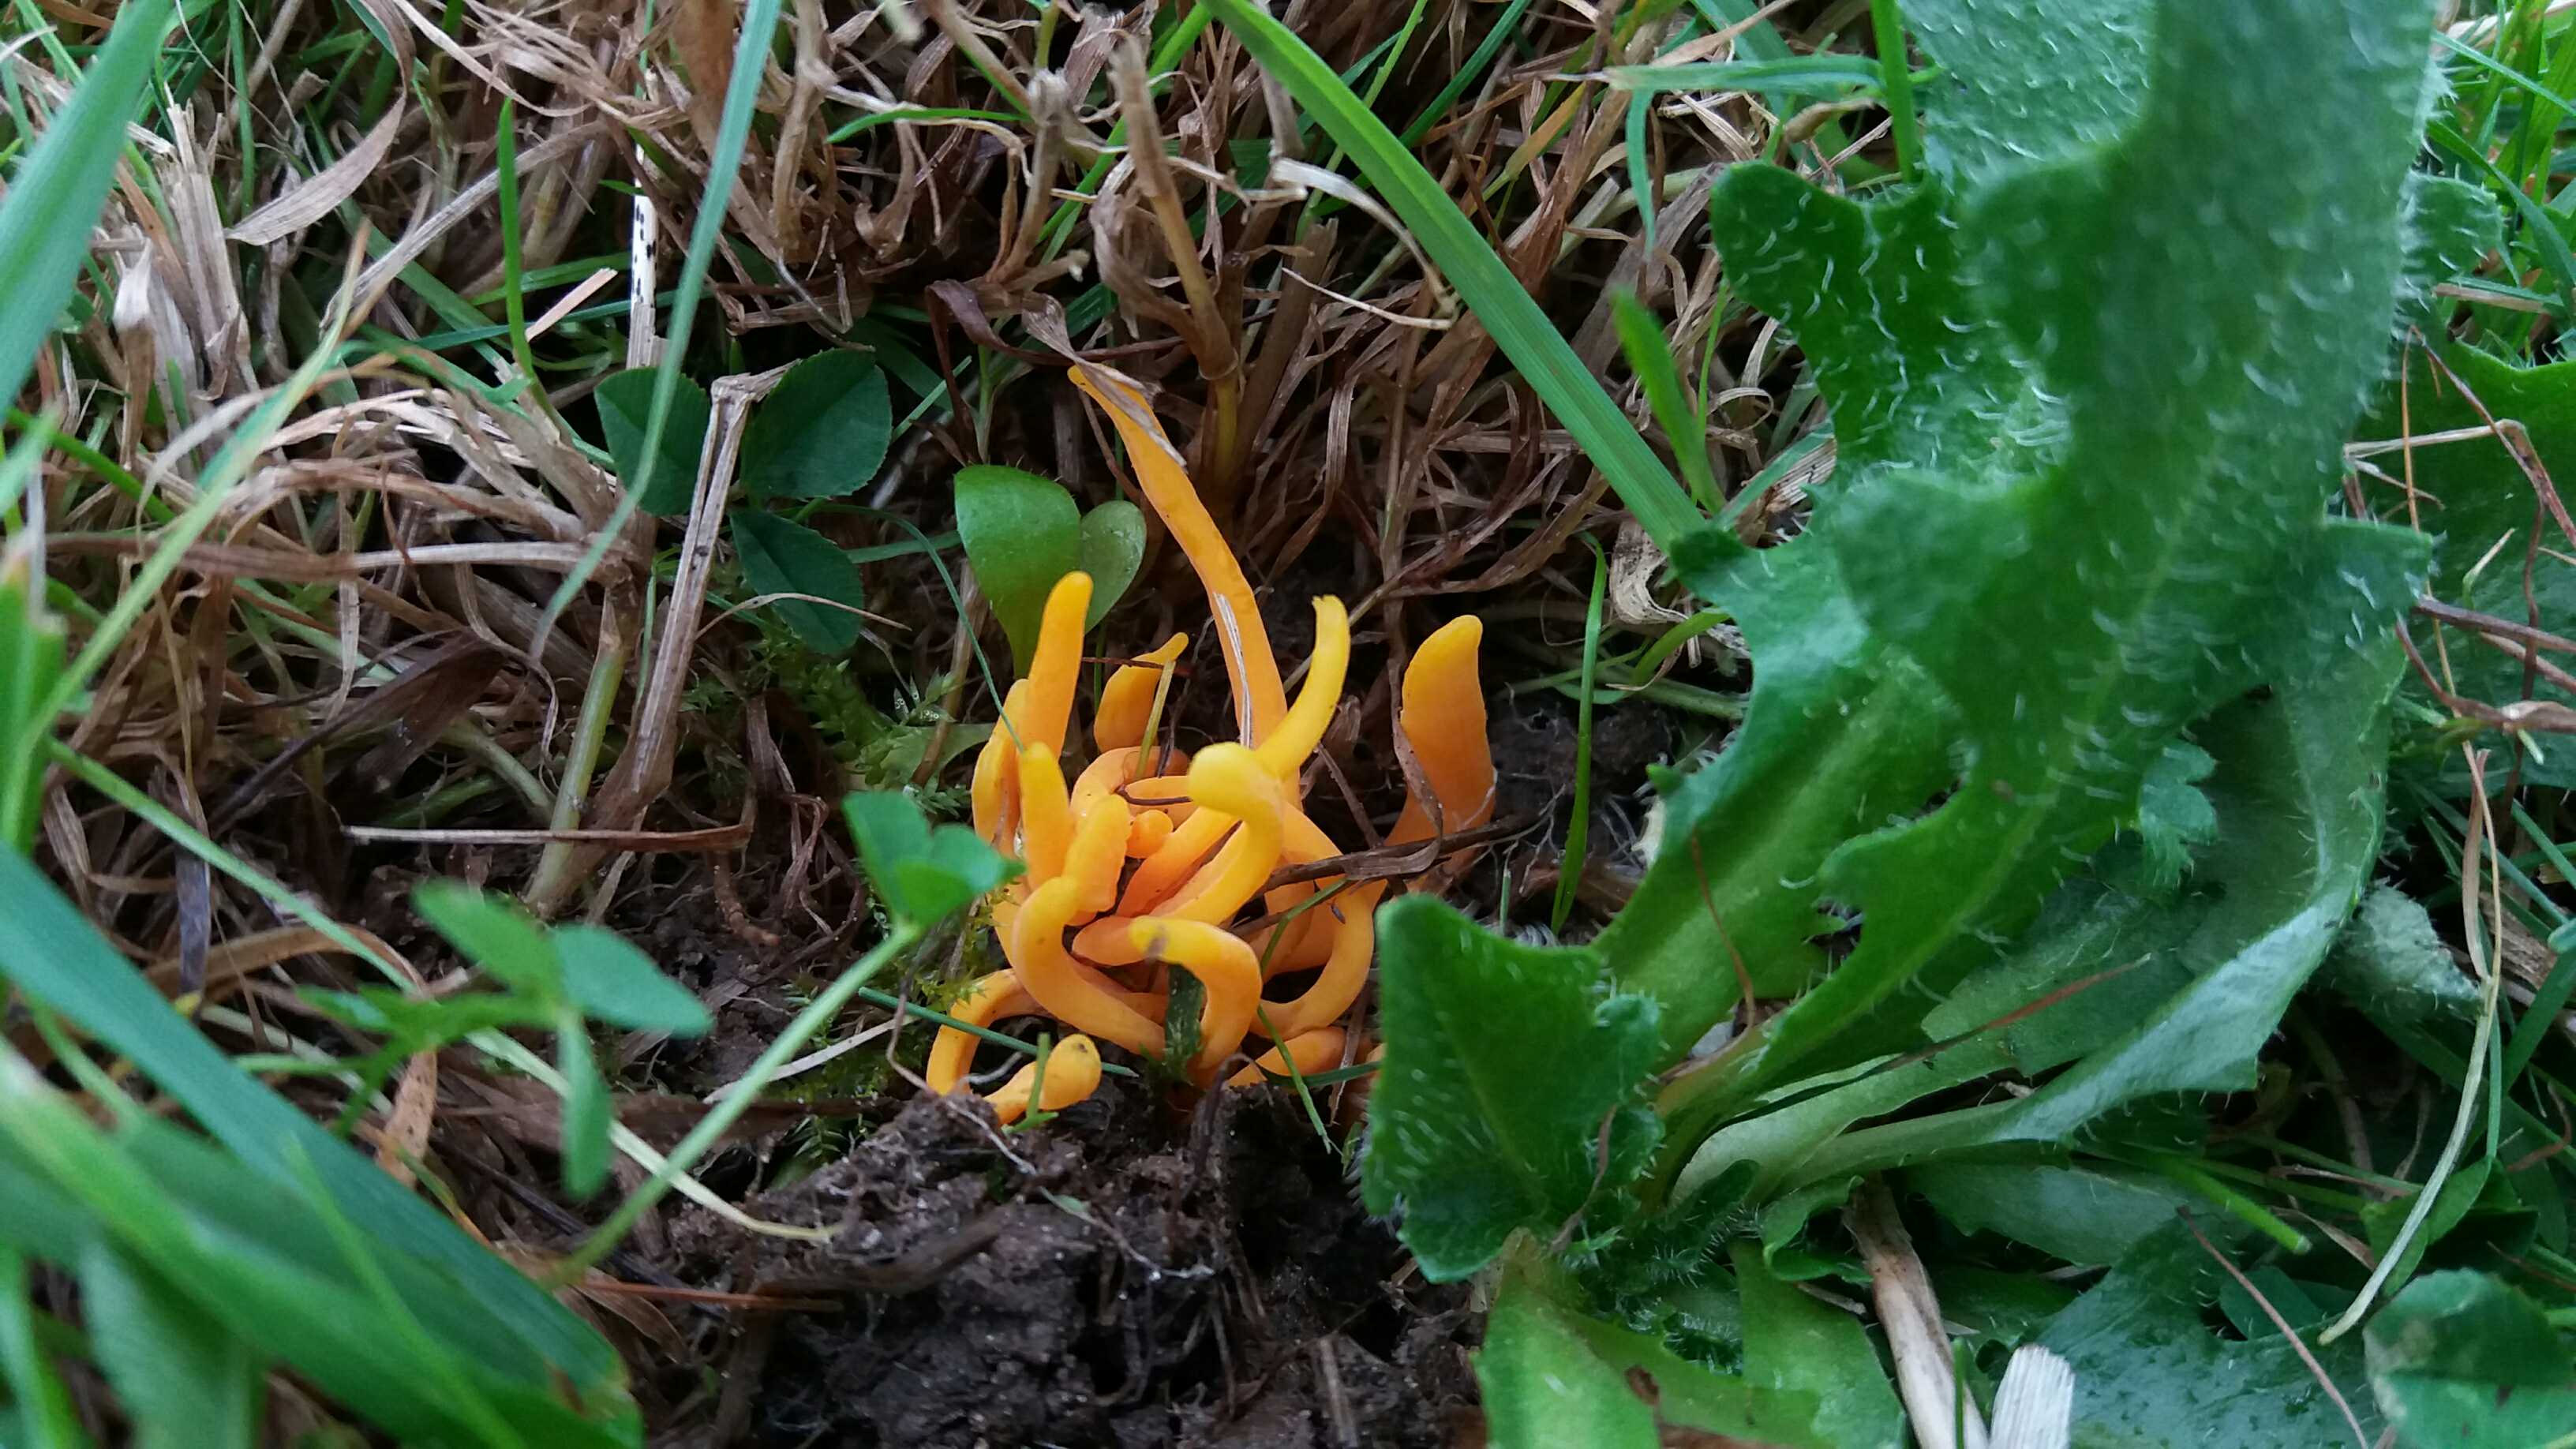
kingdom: Fungi
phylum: Basidiomycota
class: Agaricomycetes
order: Agaricales
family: Clavariaceae
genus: Clavulinopsis
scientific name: Clavulinopsis
